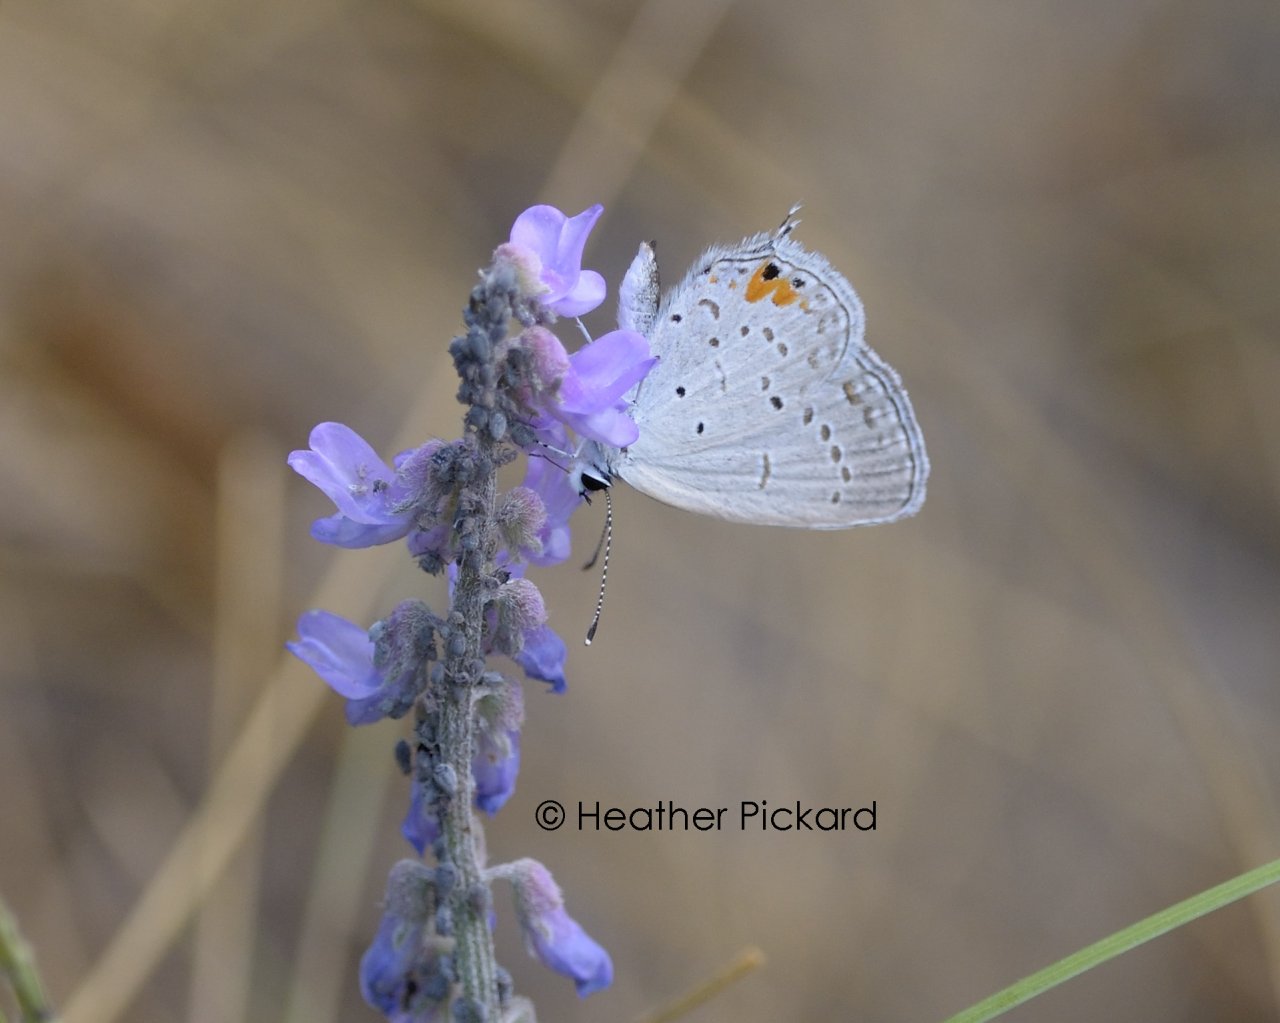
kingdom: Animalia
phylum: Arthropoda
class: Insecta
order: Lepidoptera
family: Lycaenidae
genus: Elkalyce
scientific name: Elkalyce comyntas
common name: Eastern Tailed-Blue
